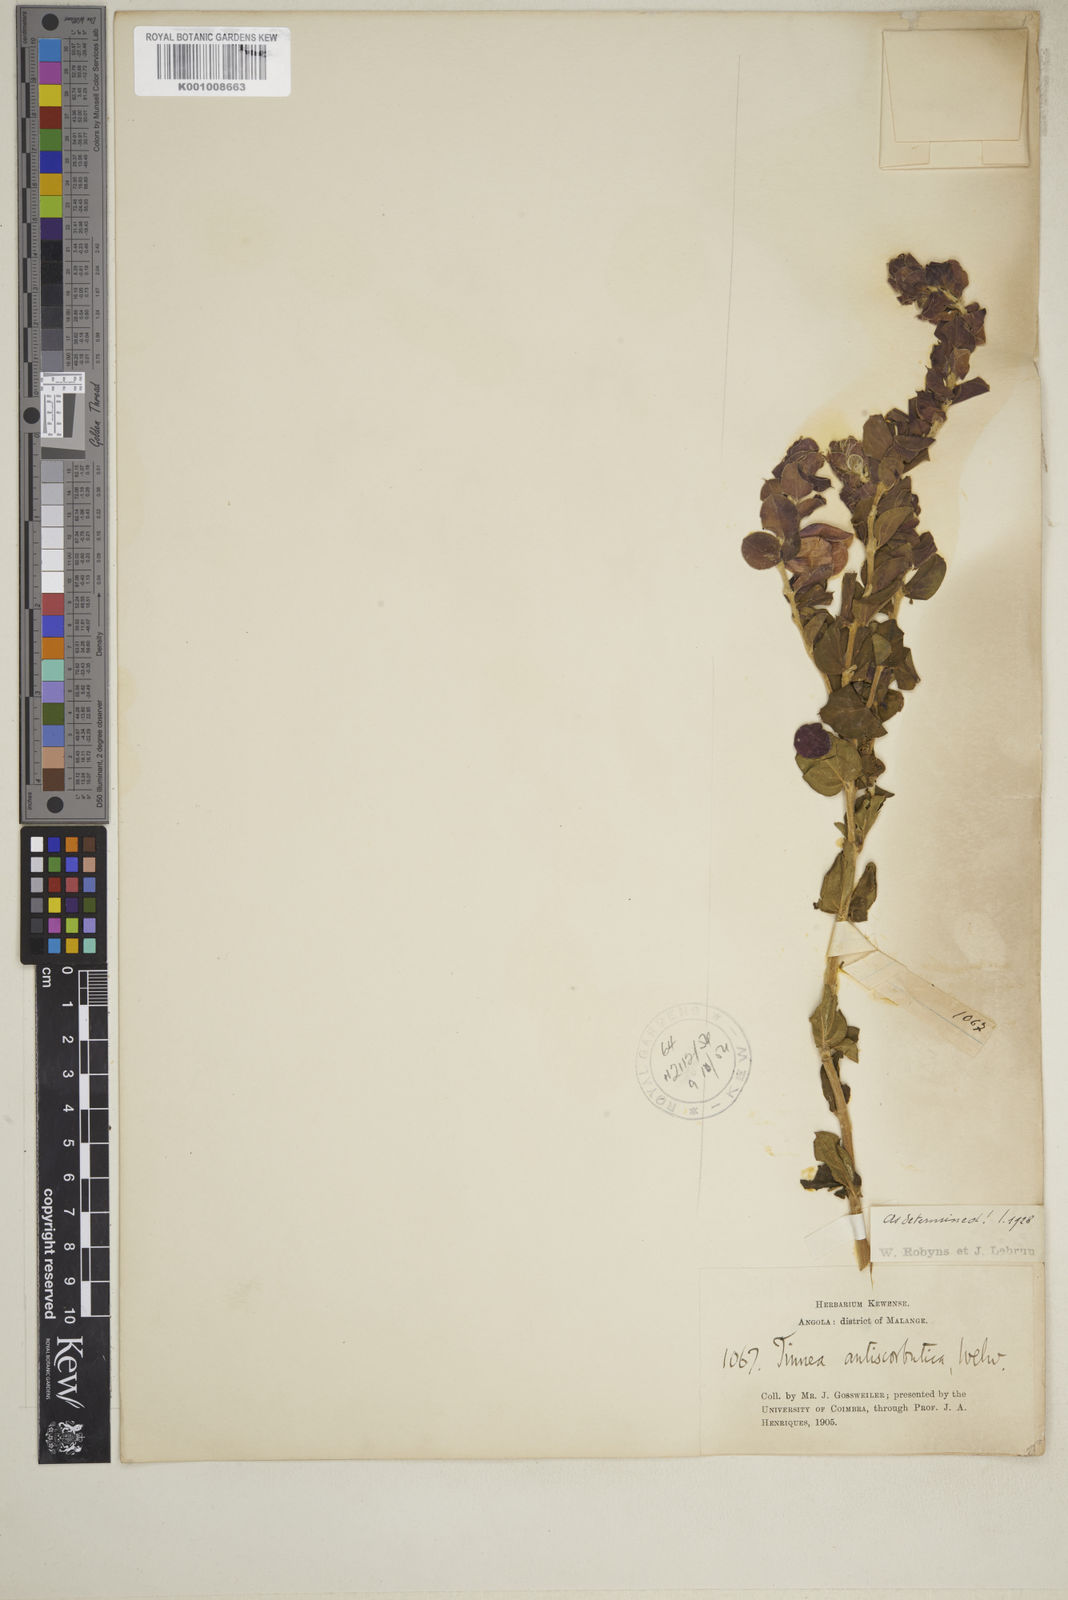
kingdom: Plantae
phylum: Tracheophyta
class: Magnoliopsida
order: Lamiales
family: Lamiaceae
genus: Tinnea
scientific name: Tinnea antiscorbutica
